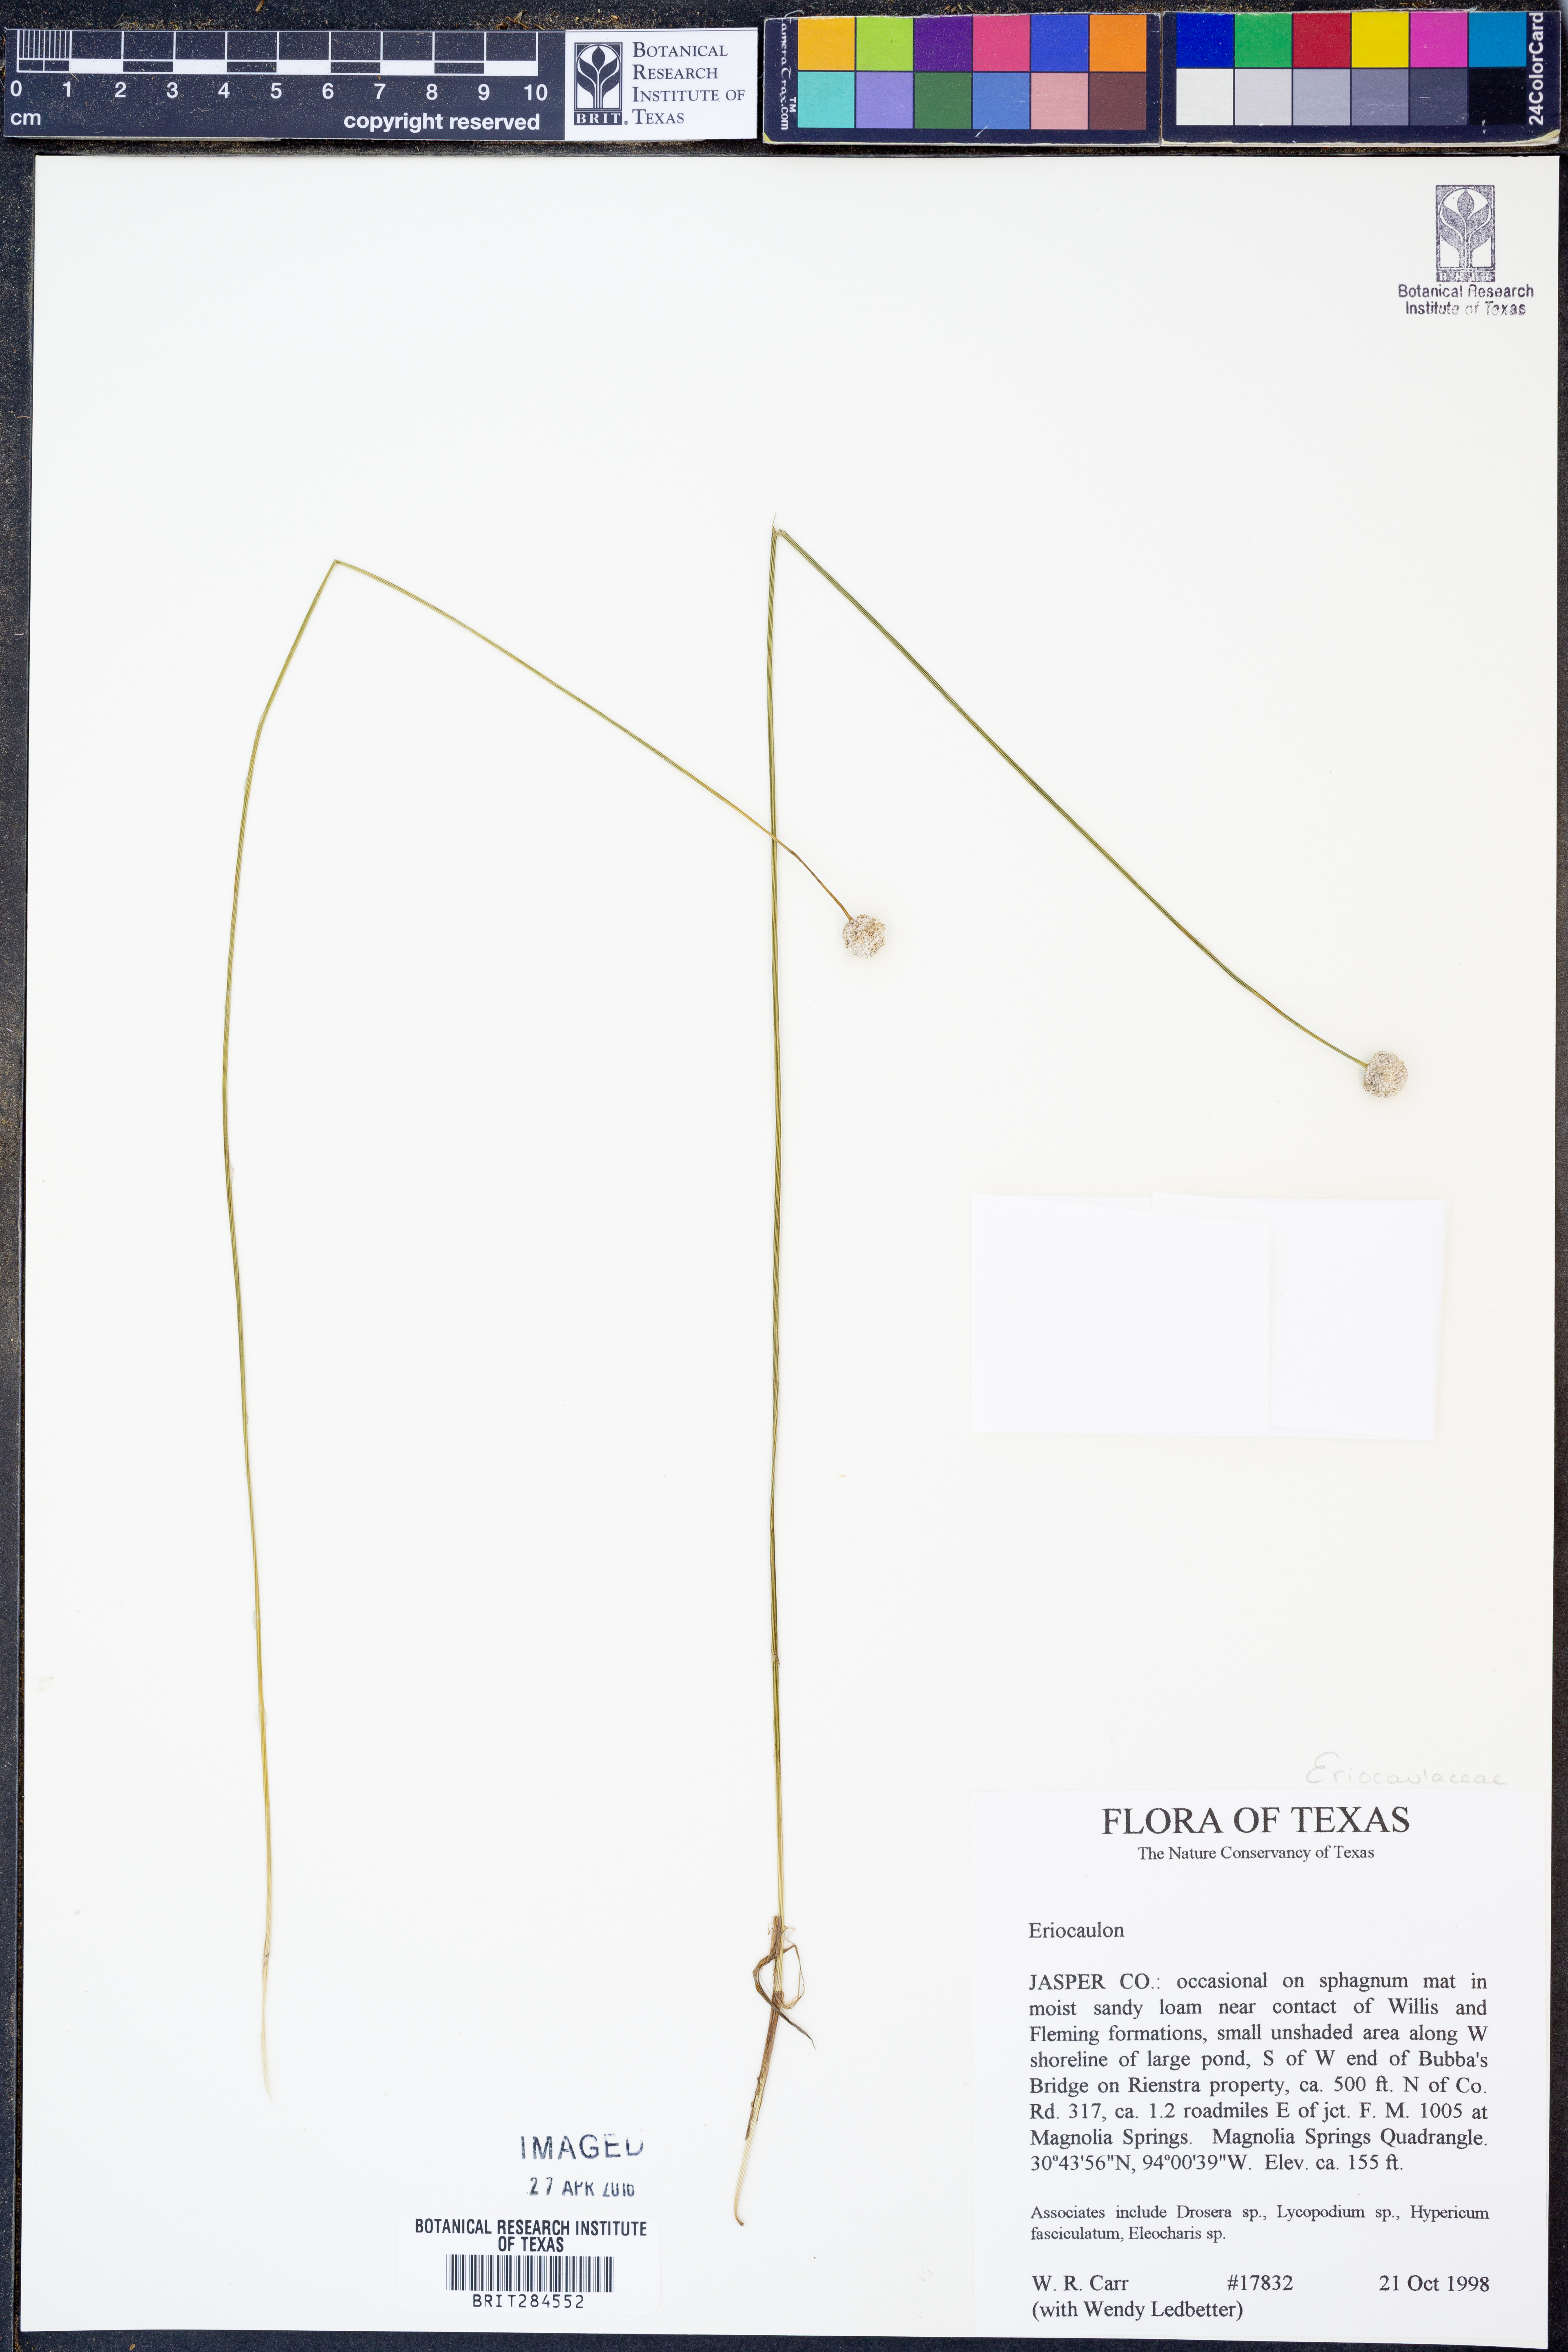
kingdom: Plantae
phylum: Tracheophyta
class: Liliopsida
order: Poales
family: Eriocaulaceae
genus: Eriocaulon
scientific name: Eriocaulon
